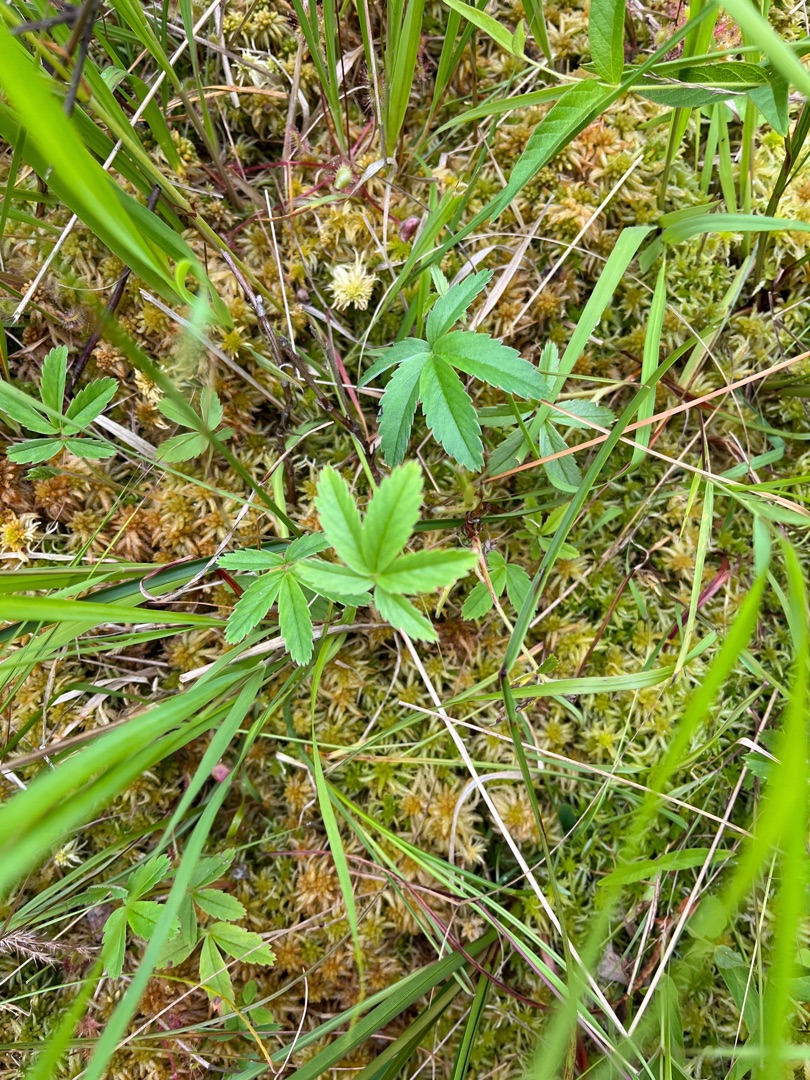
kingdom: Plantae
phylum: Tracheophyta
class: Magnoliopsida
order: Rosales
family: Rosaceae
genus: Comarum
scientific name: Comarum palustre
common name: Kragefod
